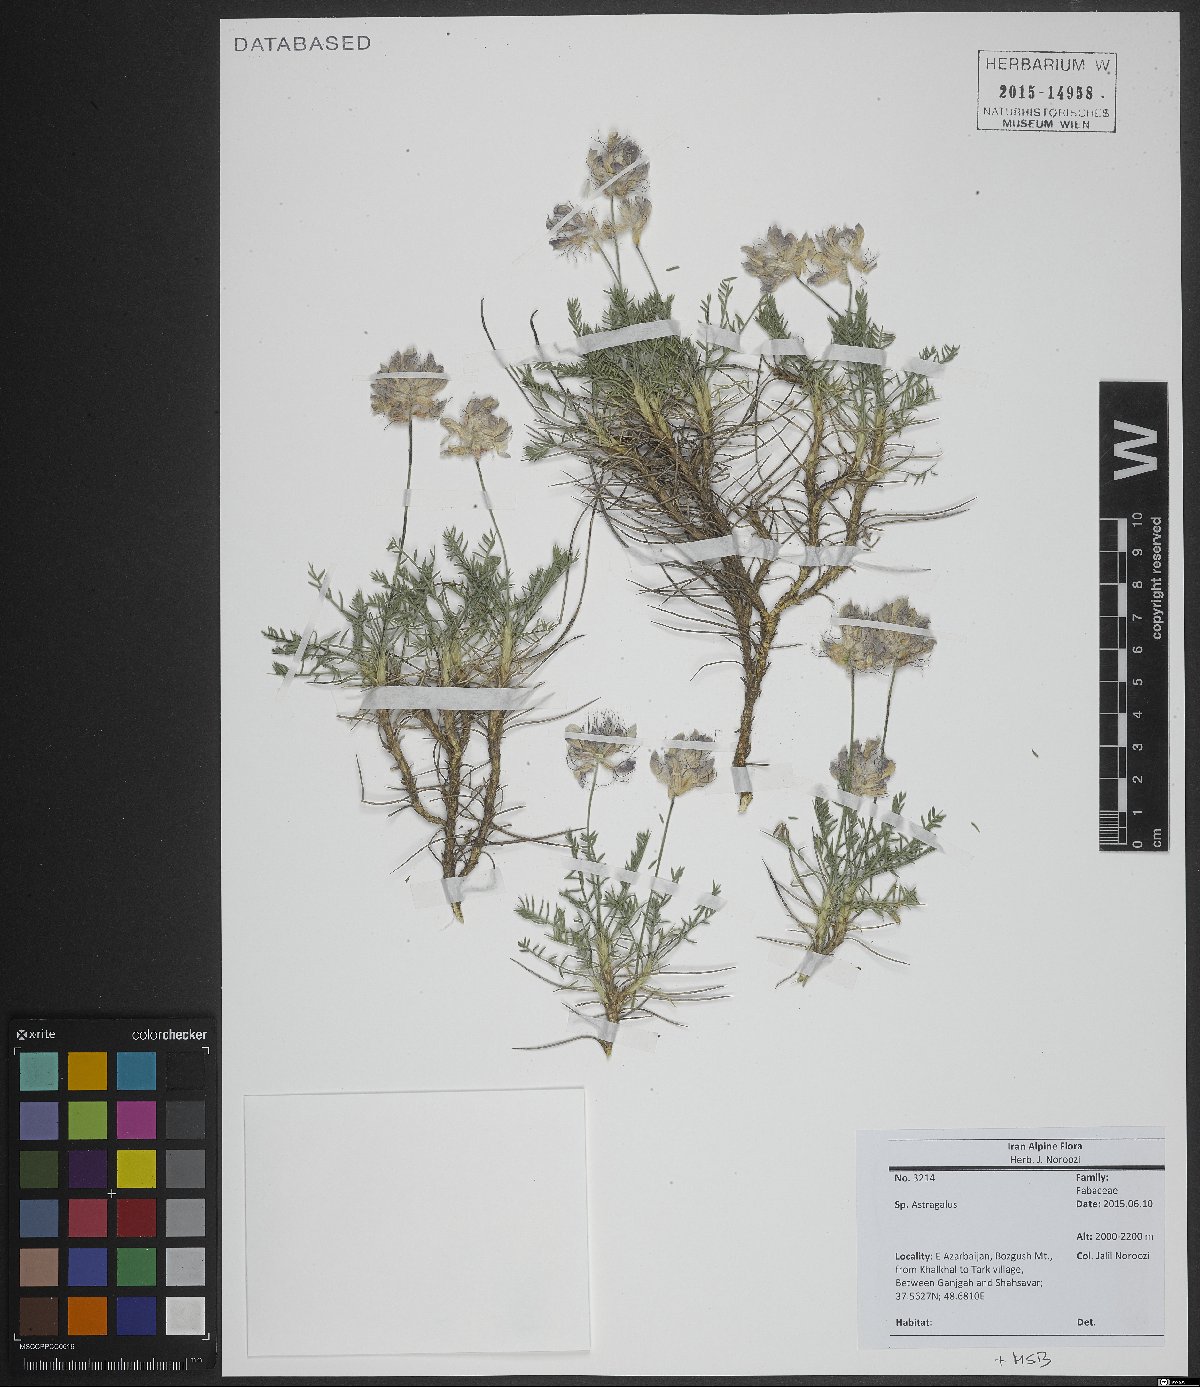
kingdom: Plantae
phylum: Tracheophyta
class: Magnoliopsida
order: Fabales
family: Fabaceae
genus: Astragalus
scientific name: Astragalus
